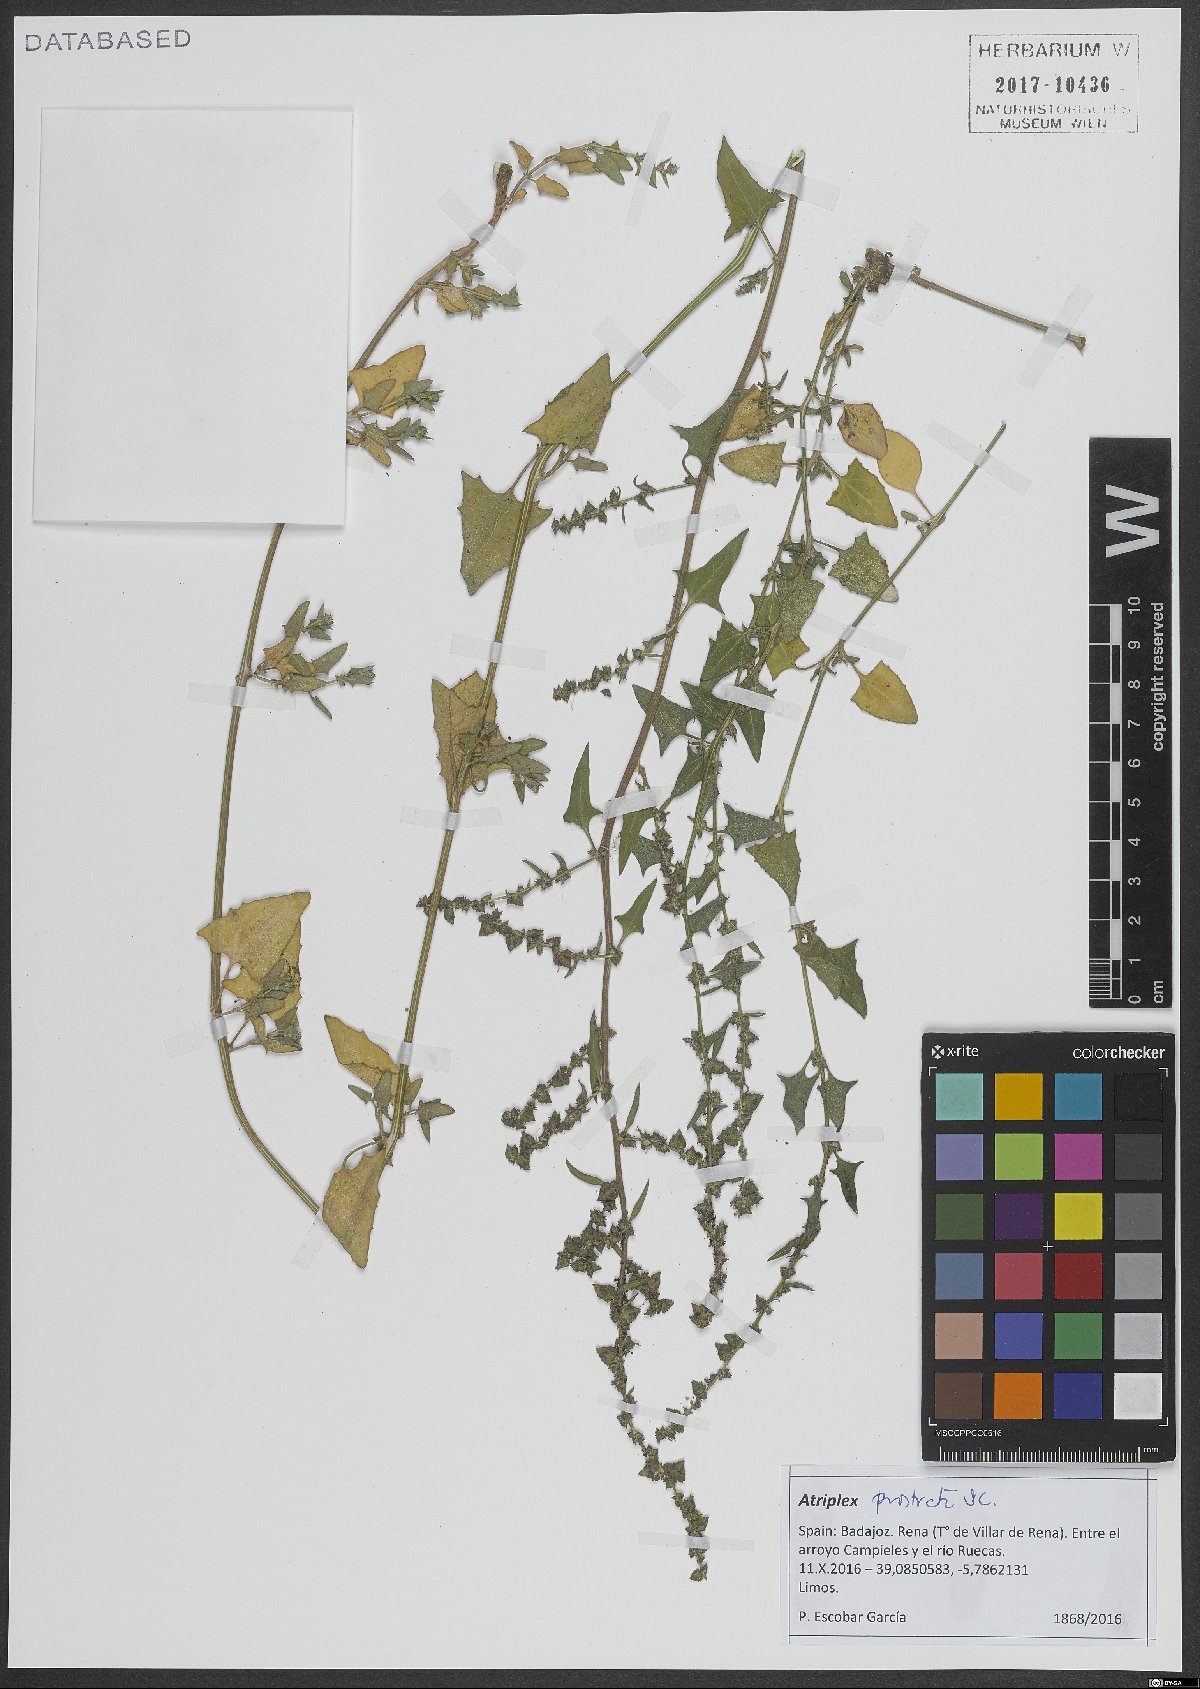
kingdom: Plantae
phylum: Tracheophyta
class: Magnoliopsida
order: Caryophyllales
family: Amaranthaceae
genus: Atriplex
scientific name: Atriplex prostrata
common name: Spear-leaved orache
